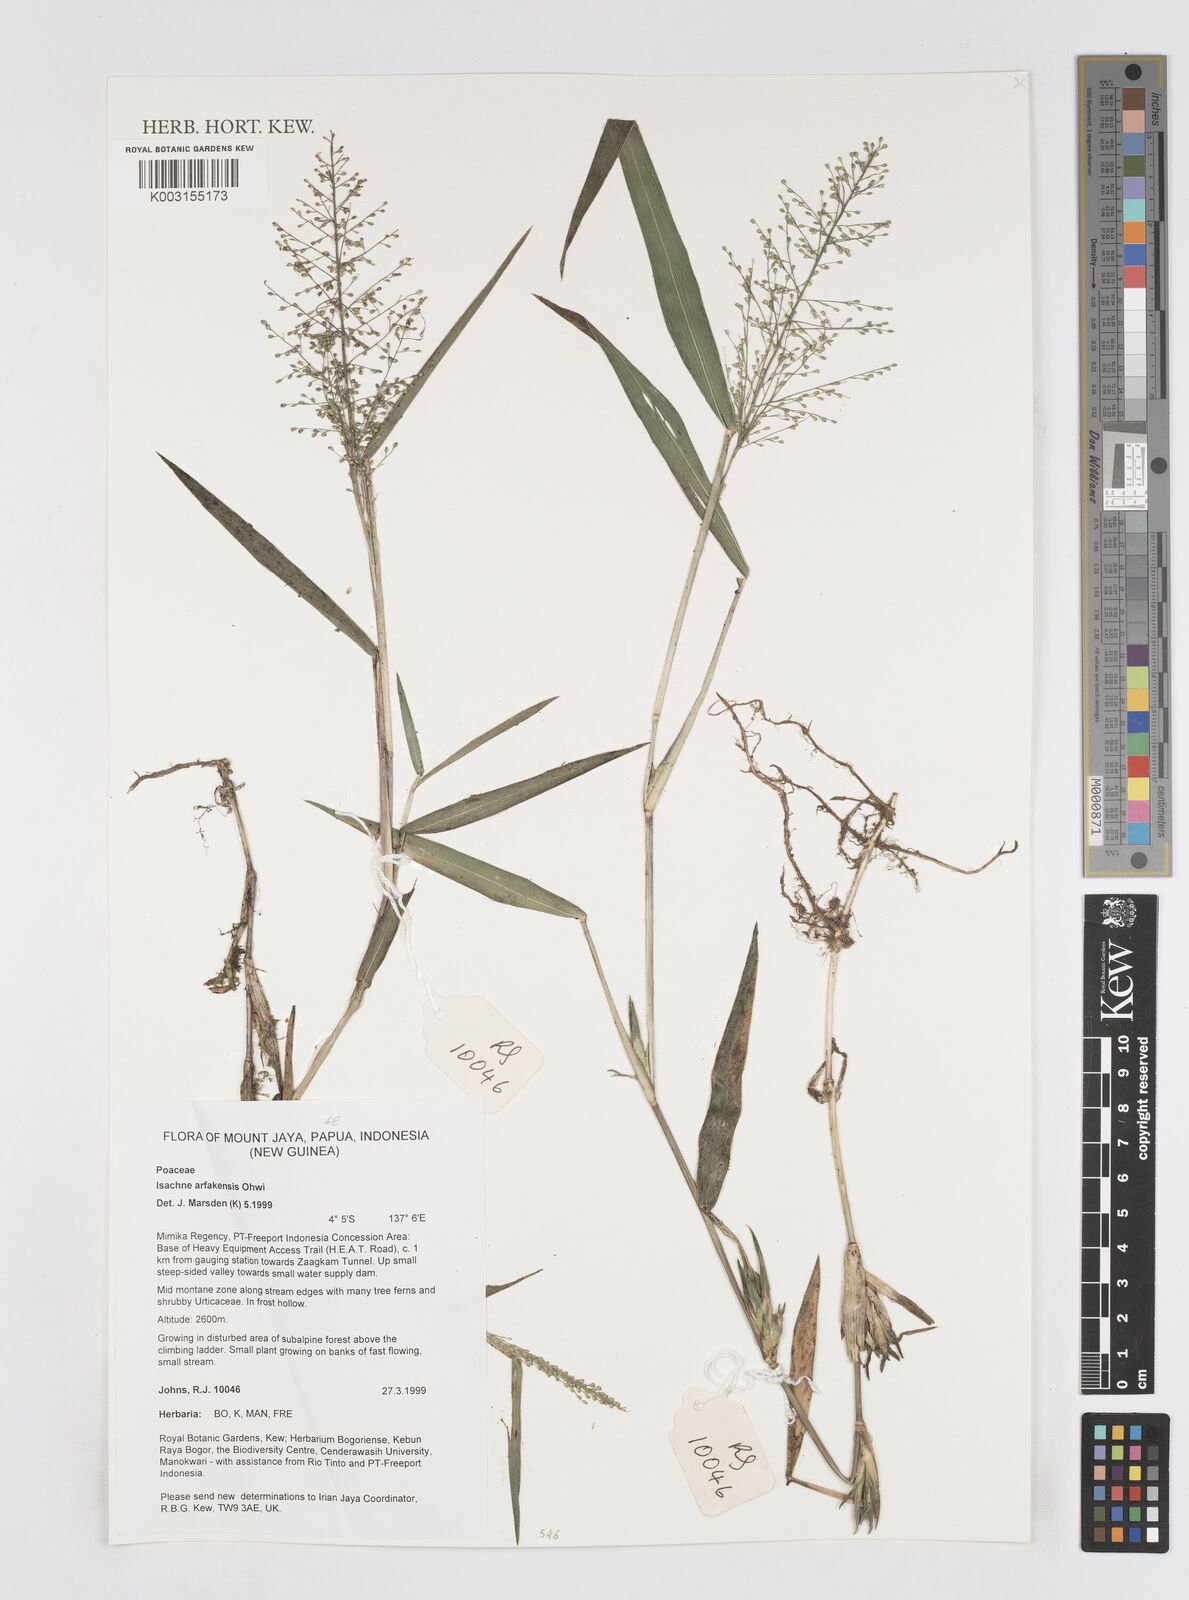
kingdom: Plantae
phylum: Tracheophyta
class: Liliopsida
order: Poales
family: Poaceae
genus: Isachne
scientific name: Isachne arfakensis
